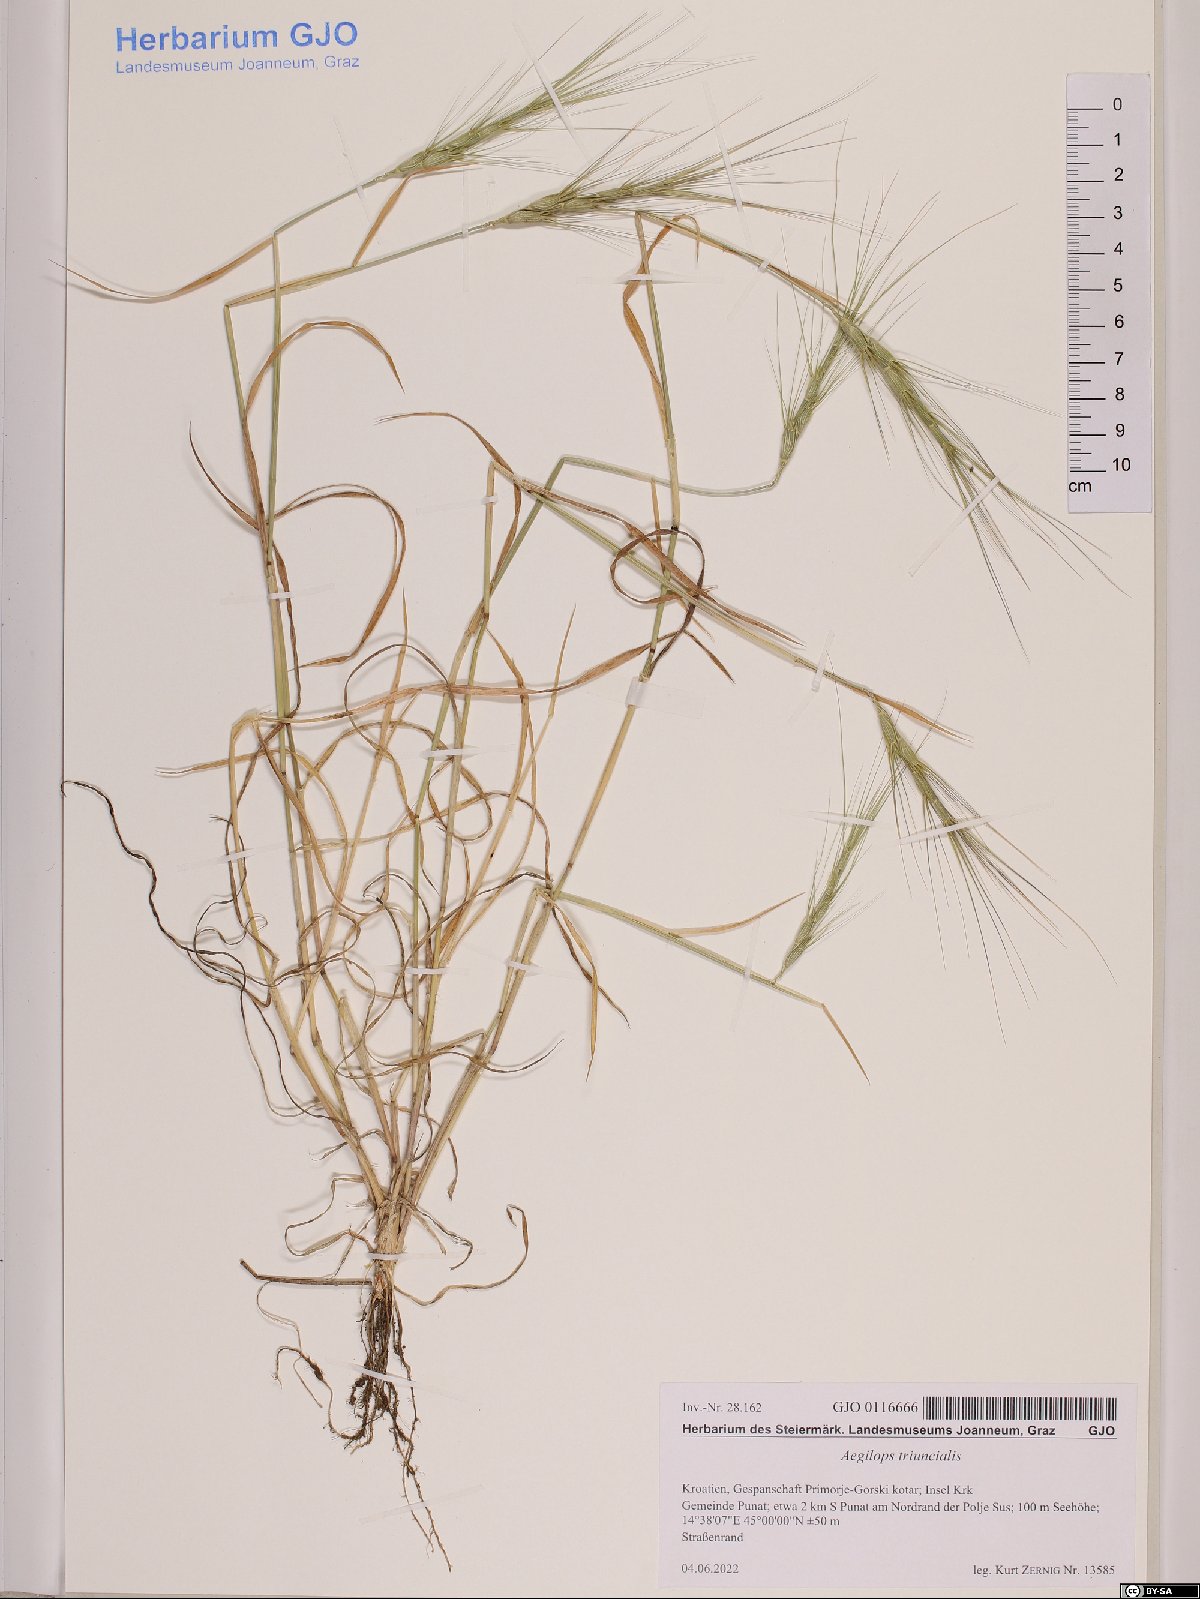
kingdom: Plantae
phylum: Tracheophyta
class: Liliopsida
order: Poales
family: Poaceae
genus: Aegilops
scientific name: Aegilops triuncialis
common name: Barb goat grass
